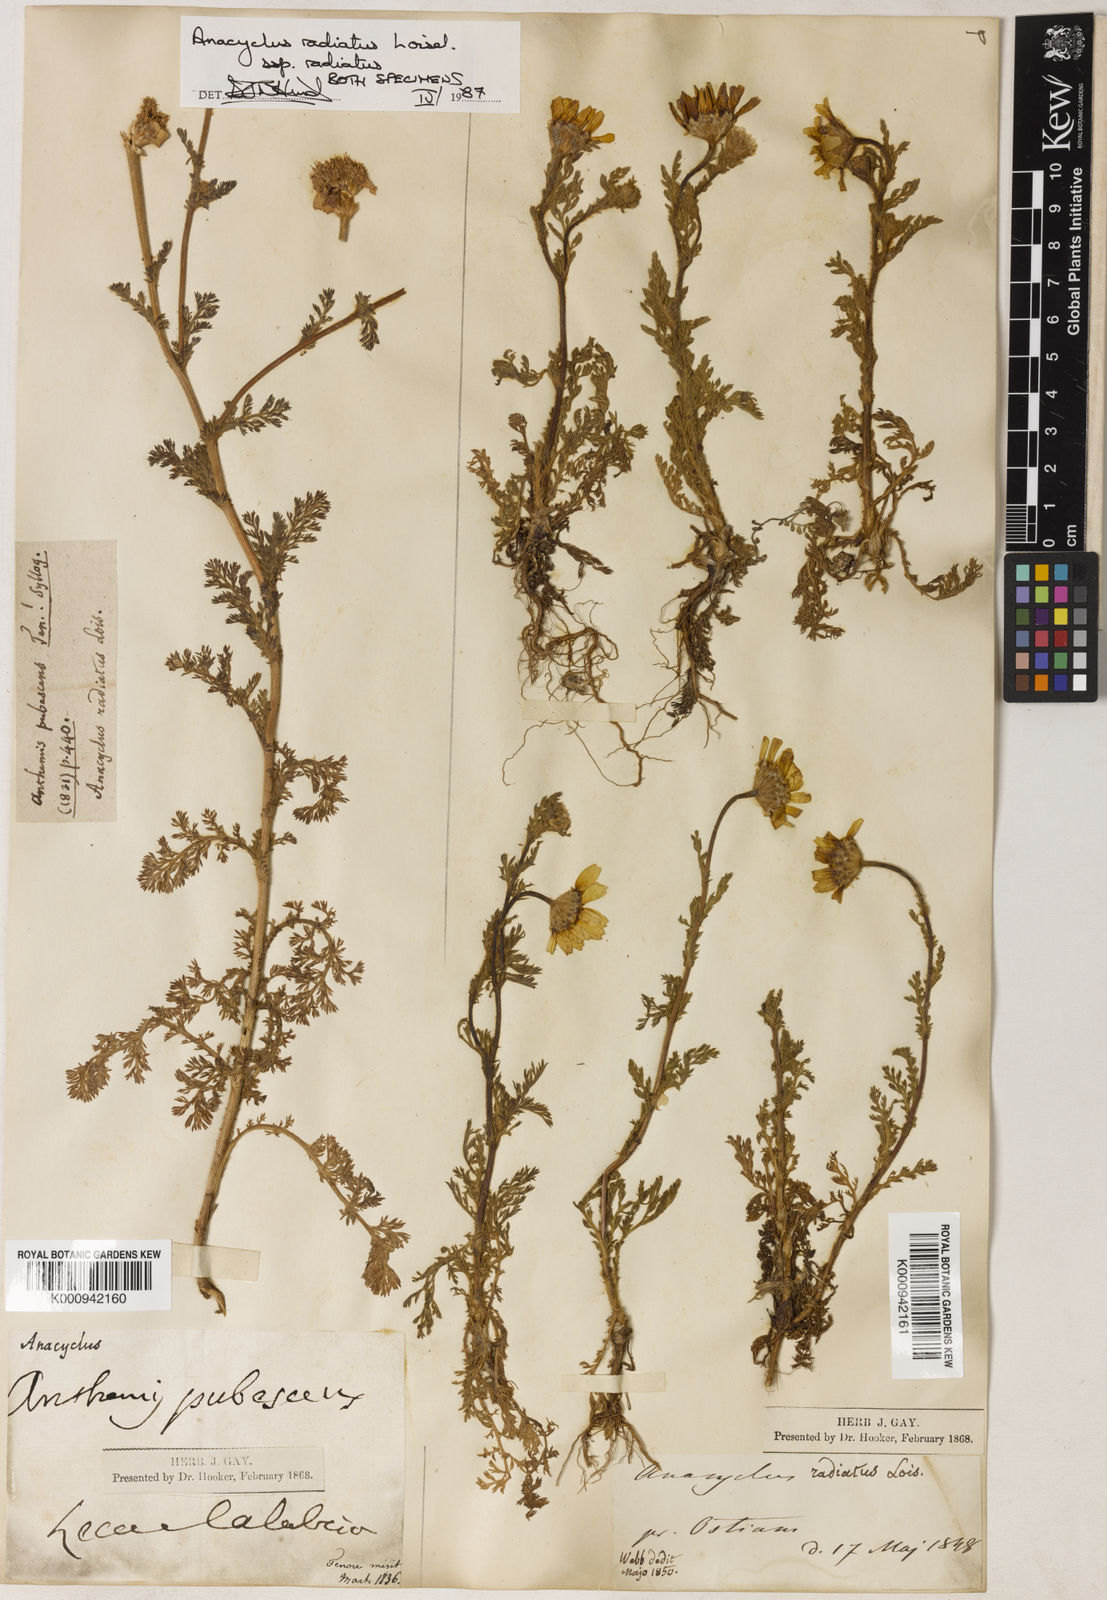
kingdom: Plantae
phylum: Tracheophyta
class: Magnoliopsida
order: Asterales
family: Asteraceae
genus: Anacyclus
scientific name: Anacyclus radiatus
